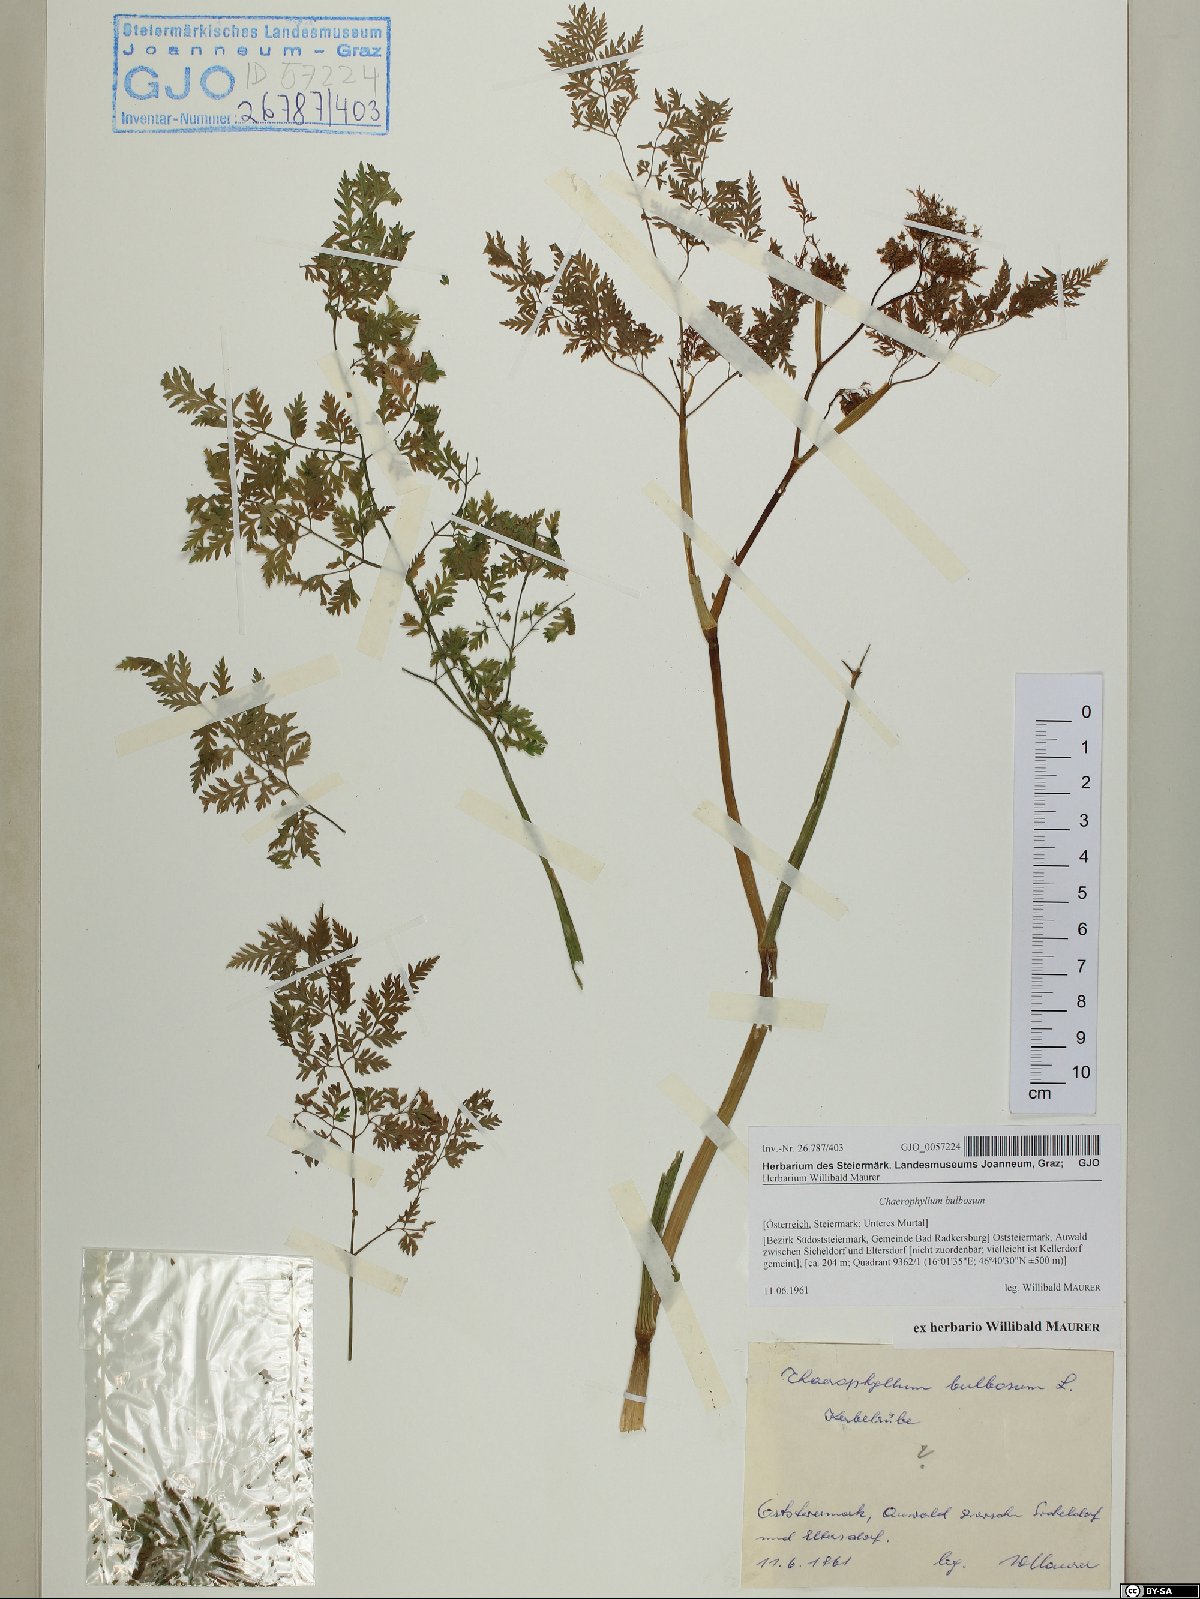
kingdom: Plantae
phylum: Tracheophyta
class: Magnoliopsida
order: Apiales
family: Apiaceae
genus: Chaerophyllum
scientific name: Chaerophyllum bulbosum
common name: Bulbous chervil
